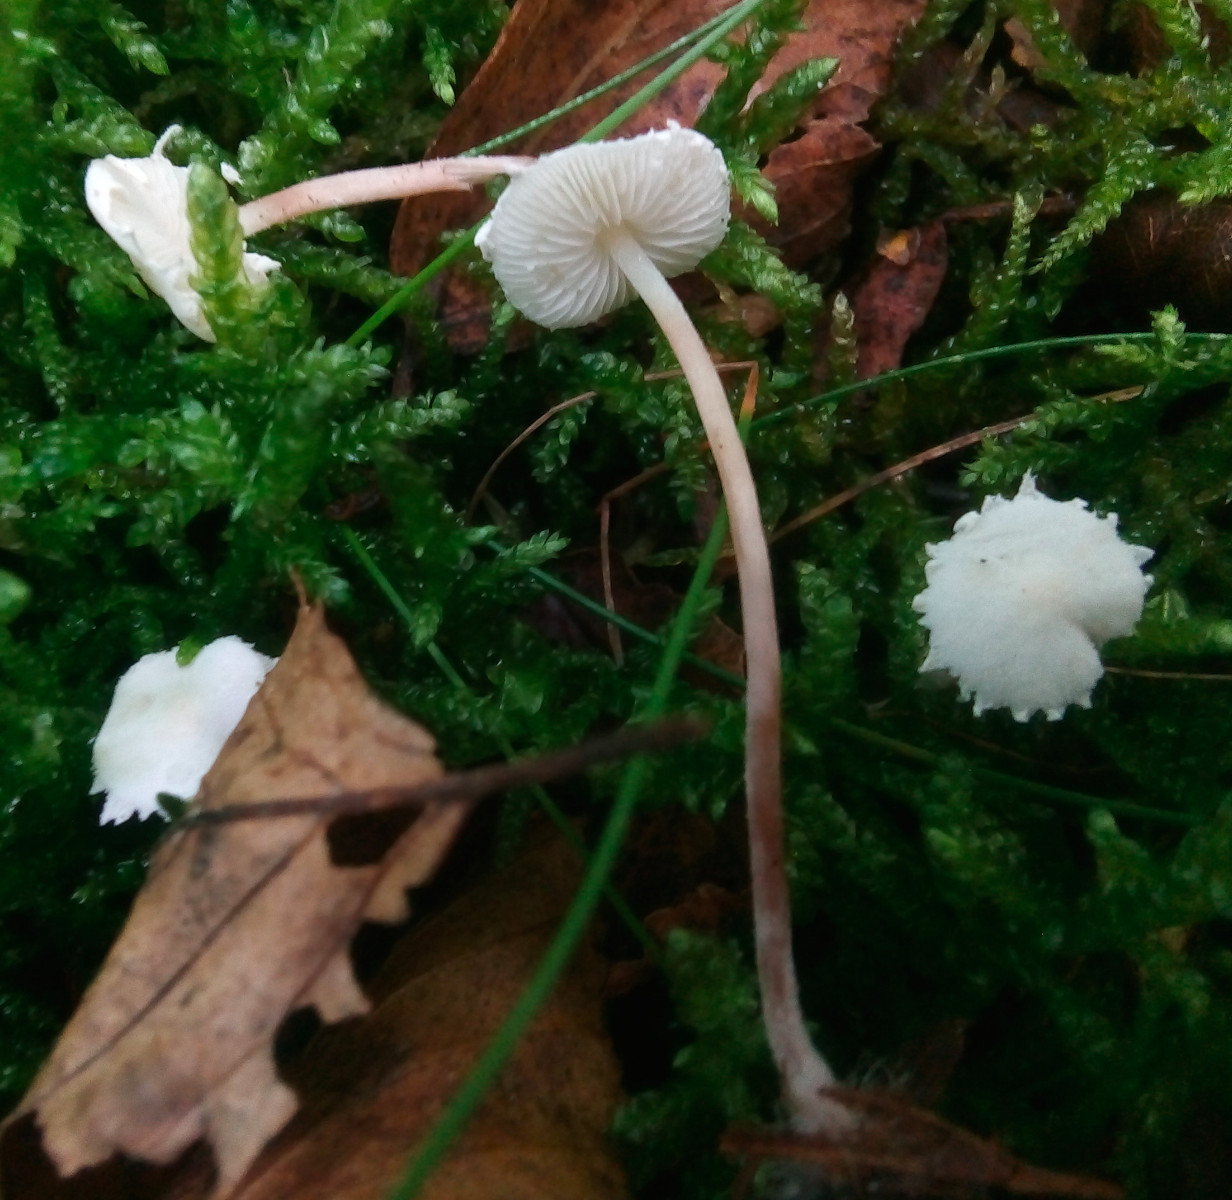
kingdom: Fungi
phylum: Basidiomycota
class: Agaricomycetes
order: Agaricales
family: Agaricaceae
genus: Cystolepiota
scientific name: Cystolepiota seminuda
